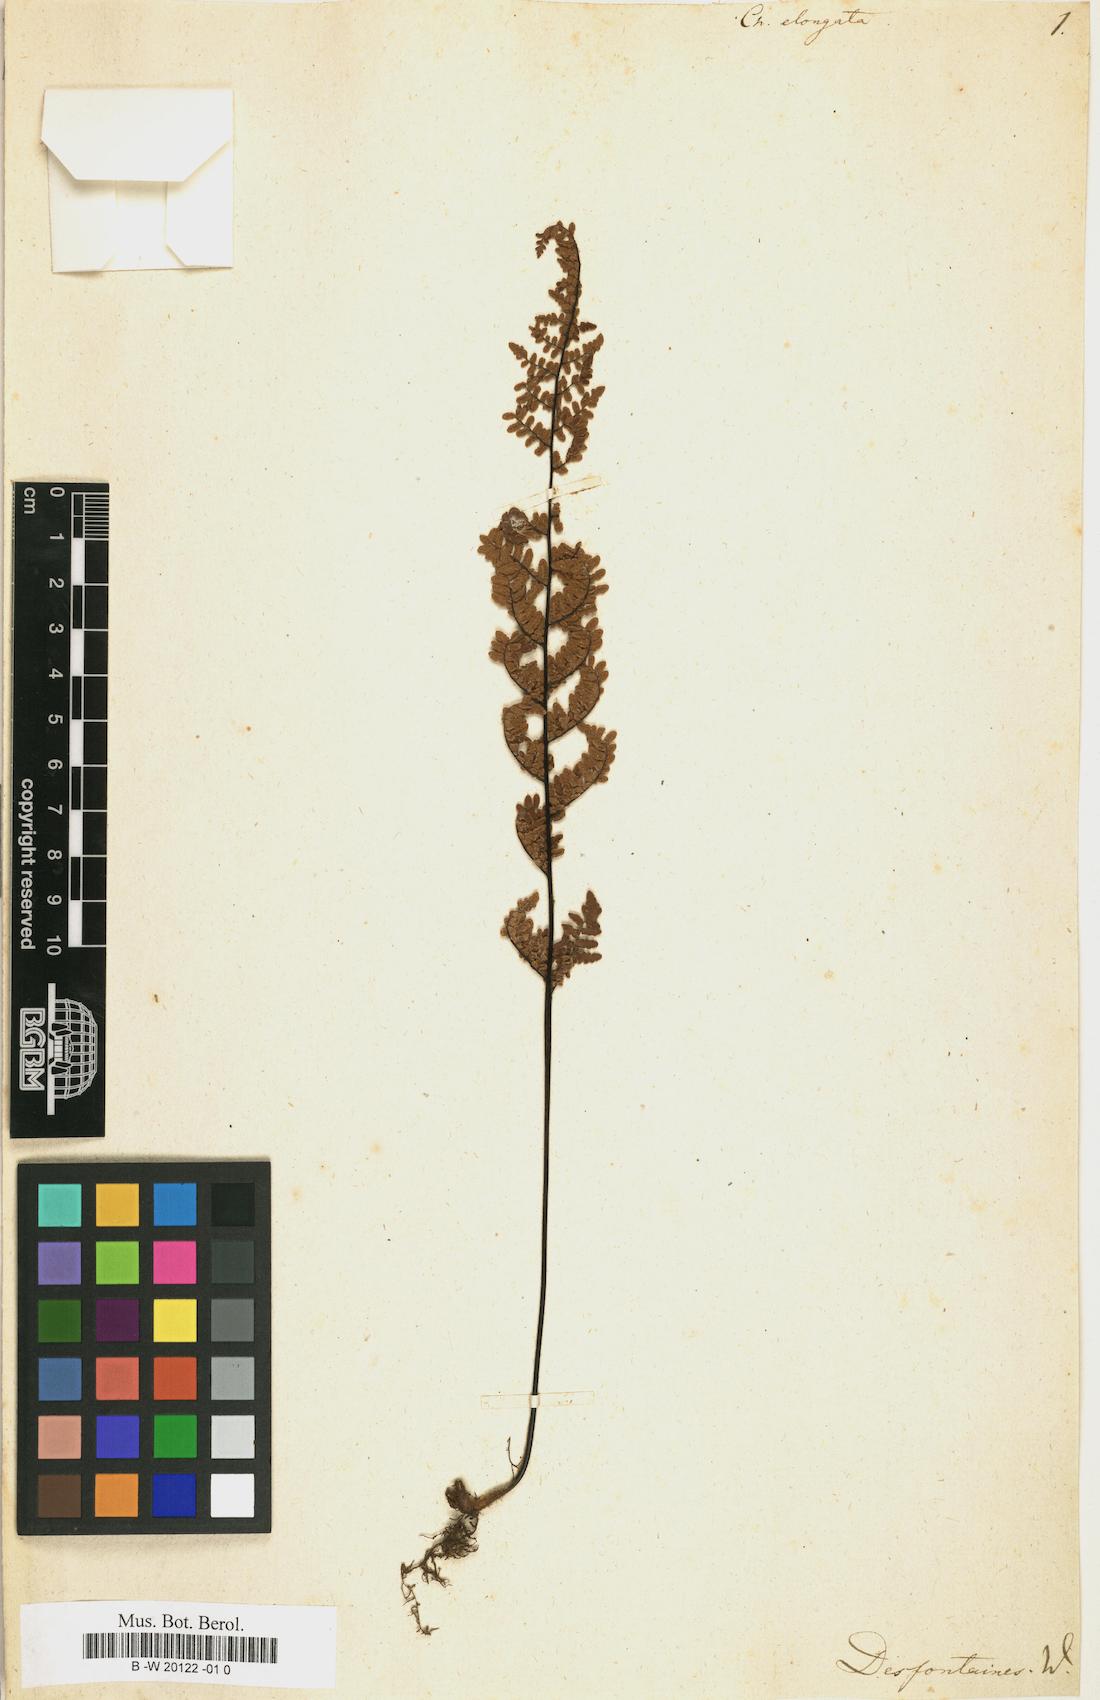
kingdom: Plantae
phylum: Tracheophyta
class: Polypodiopsida
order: Polypodiales
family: Pteridaceae
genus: Myriopteris
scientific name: Myriopteris microphylla
